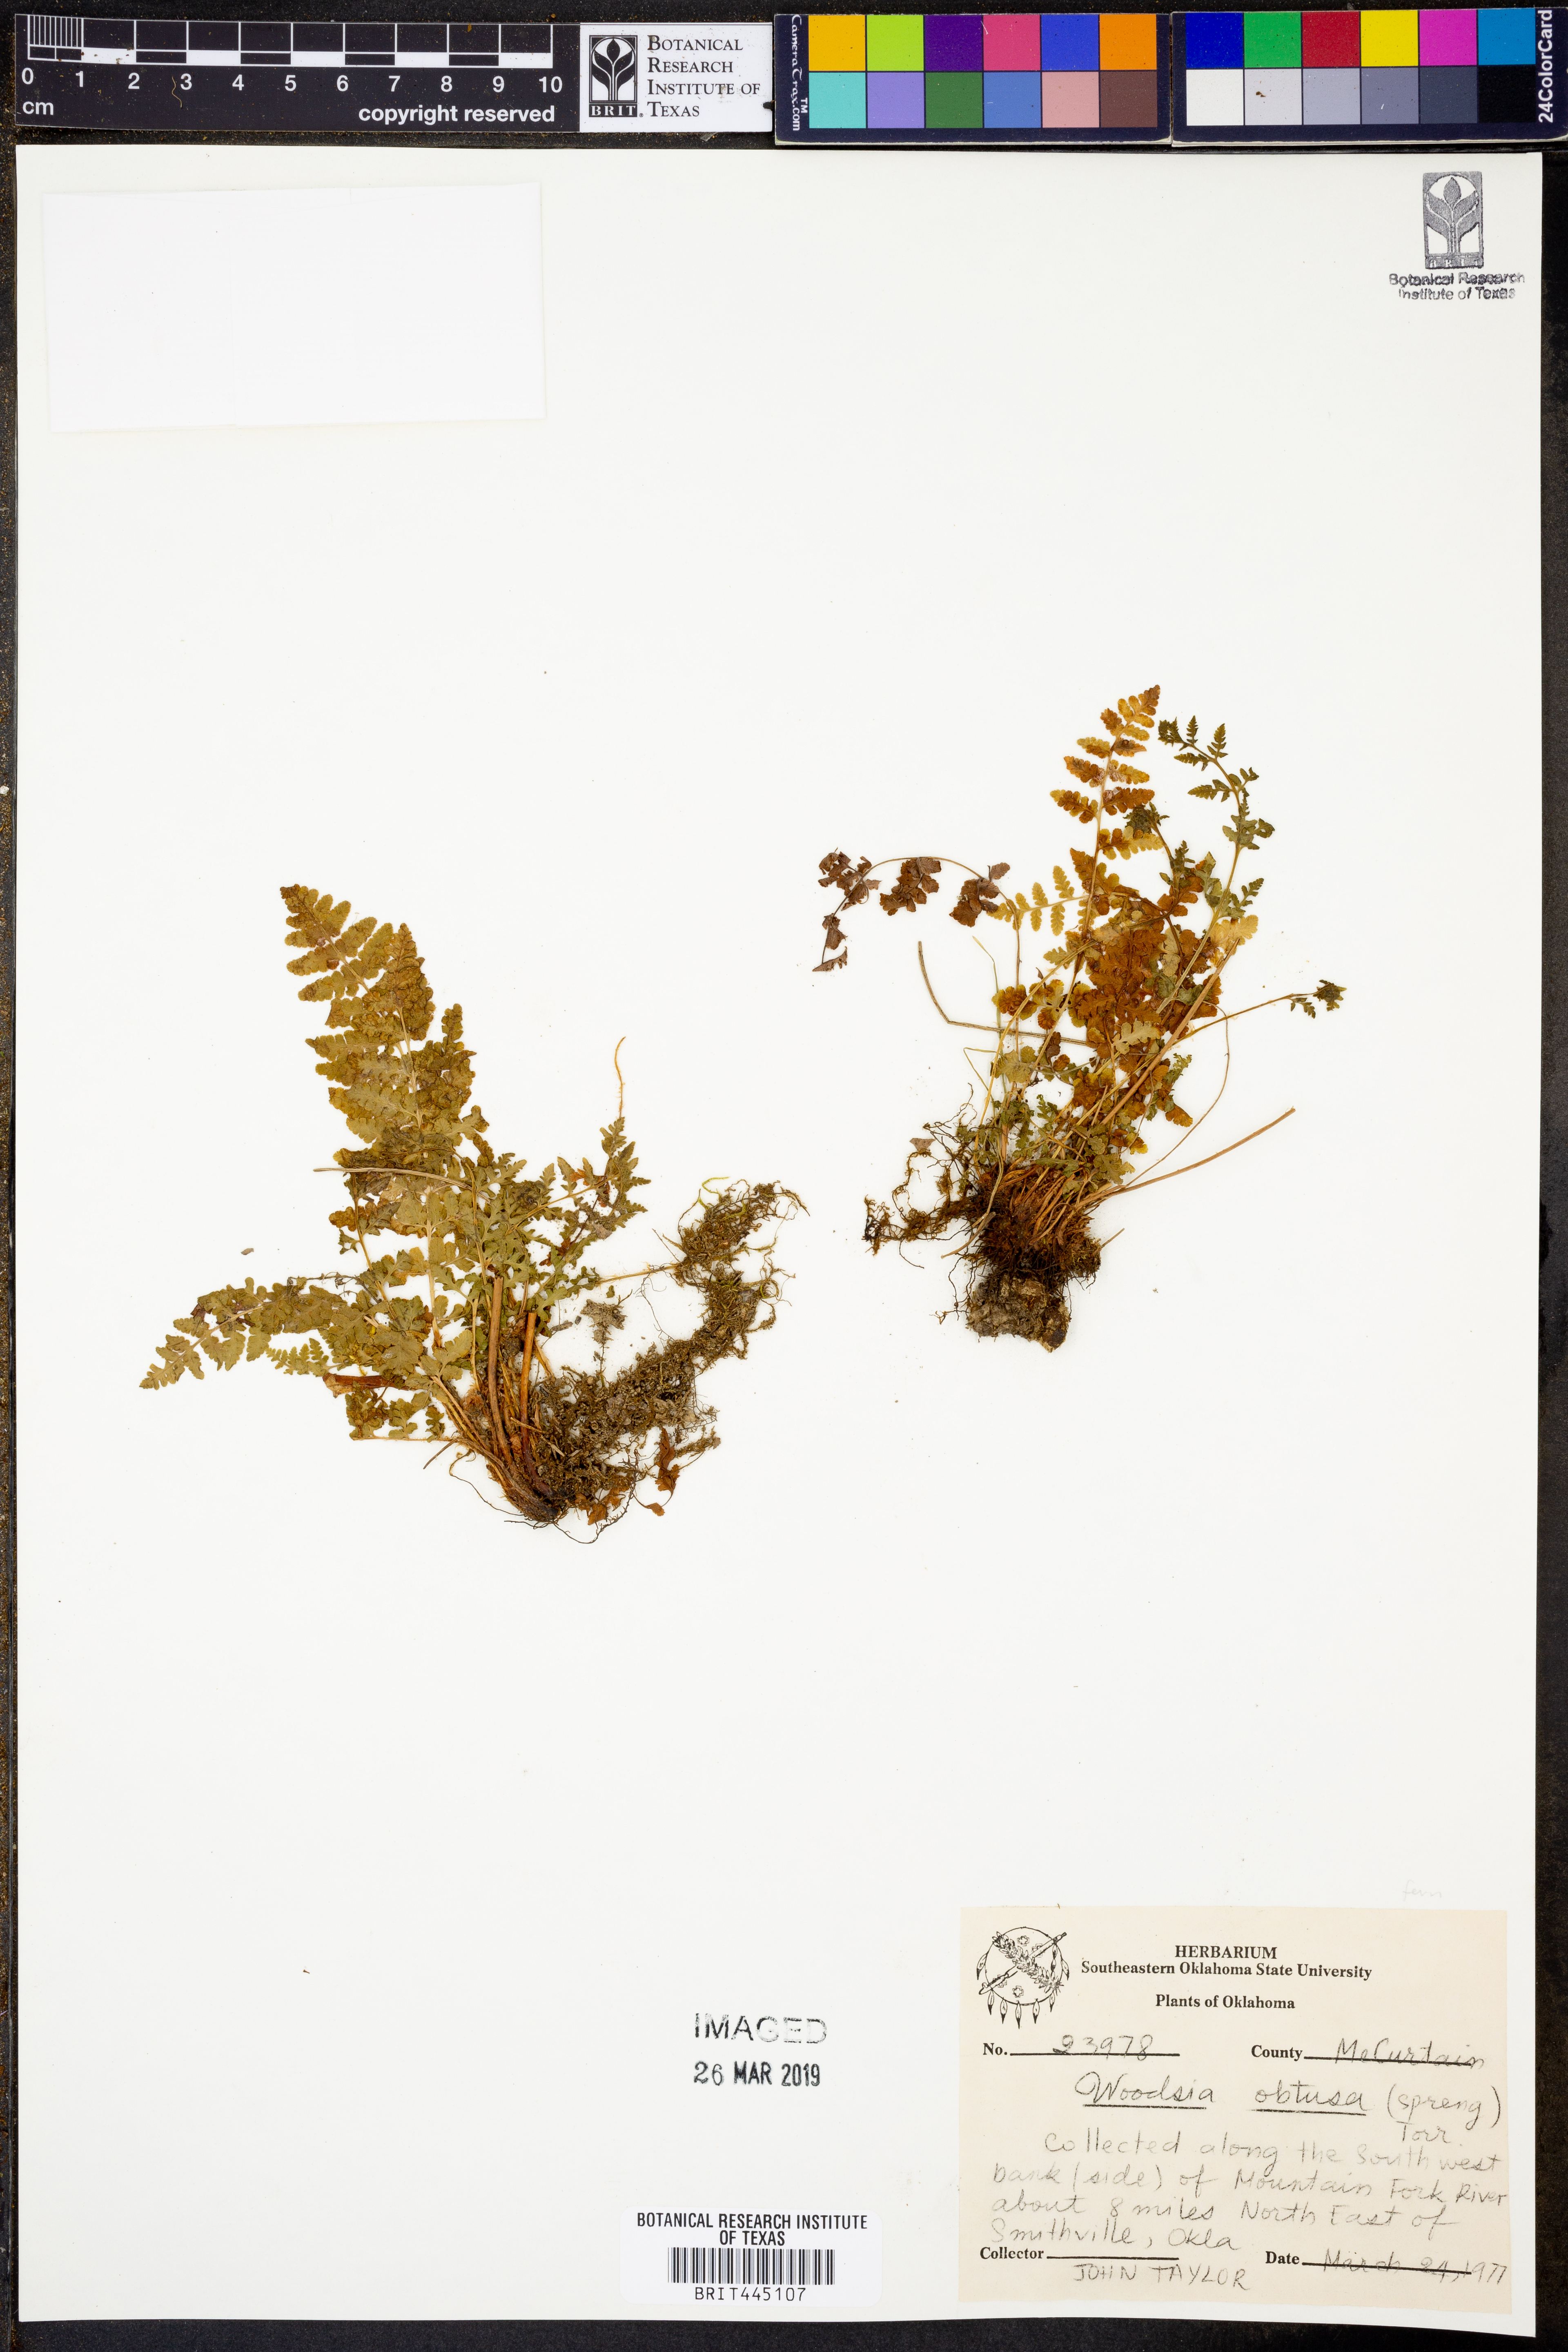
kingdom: Plantae
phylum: Tracheophyta
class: Polypodiopsida
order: Polypodiales
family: Woodsiaceae
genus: Physematium
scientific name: Physematium obtusum
